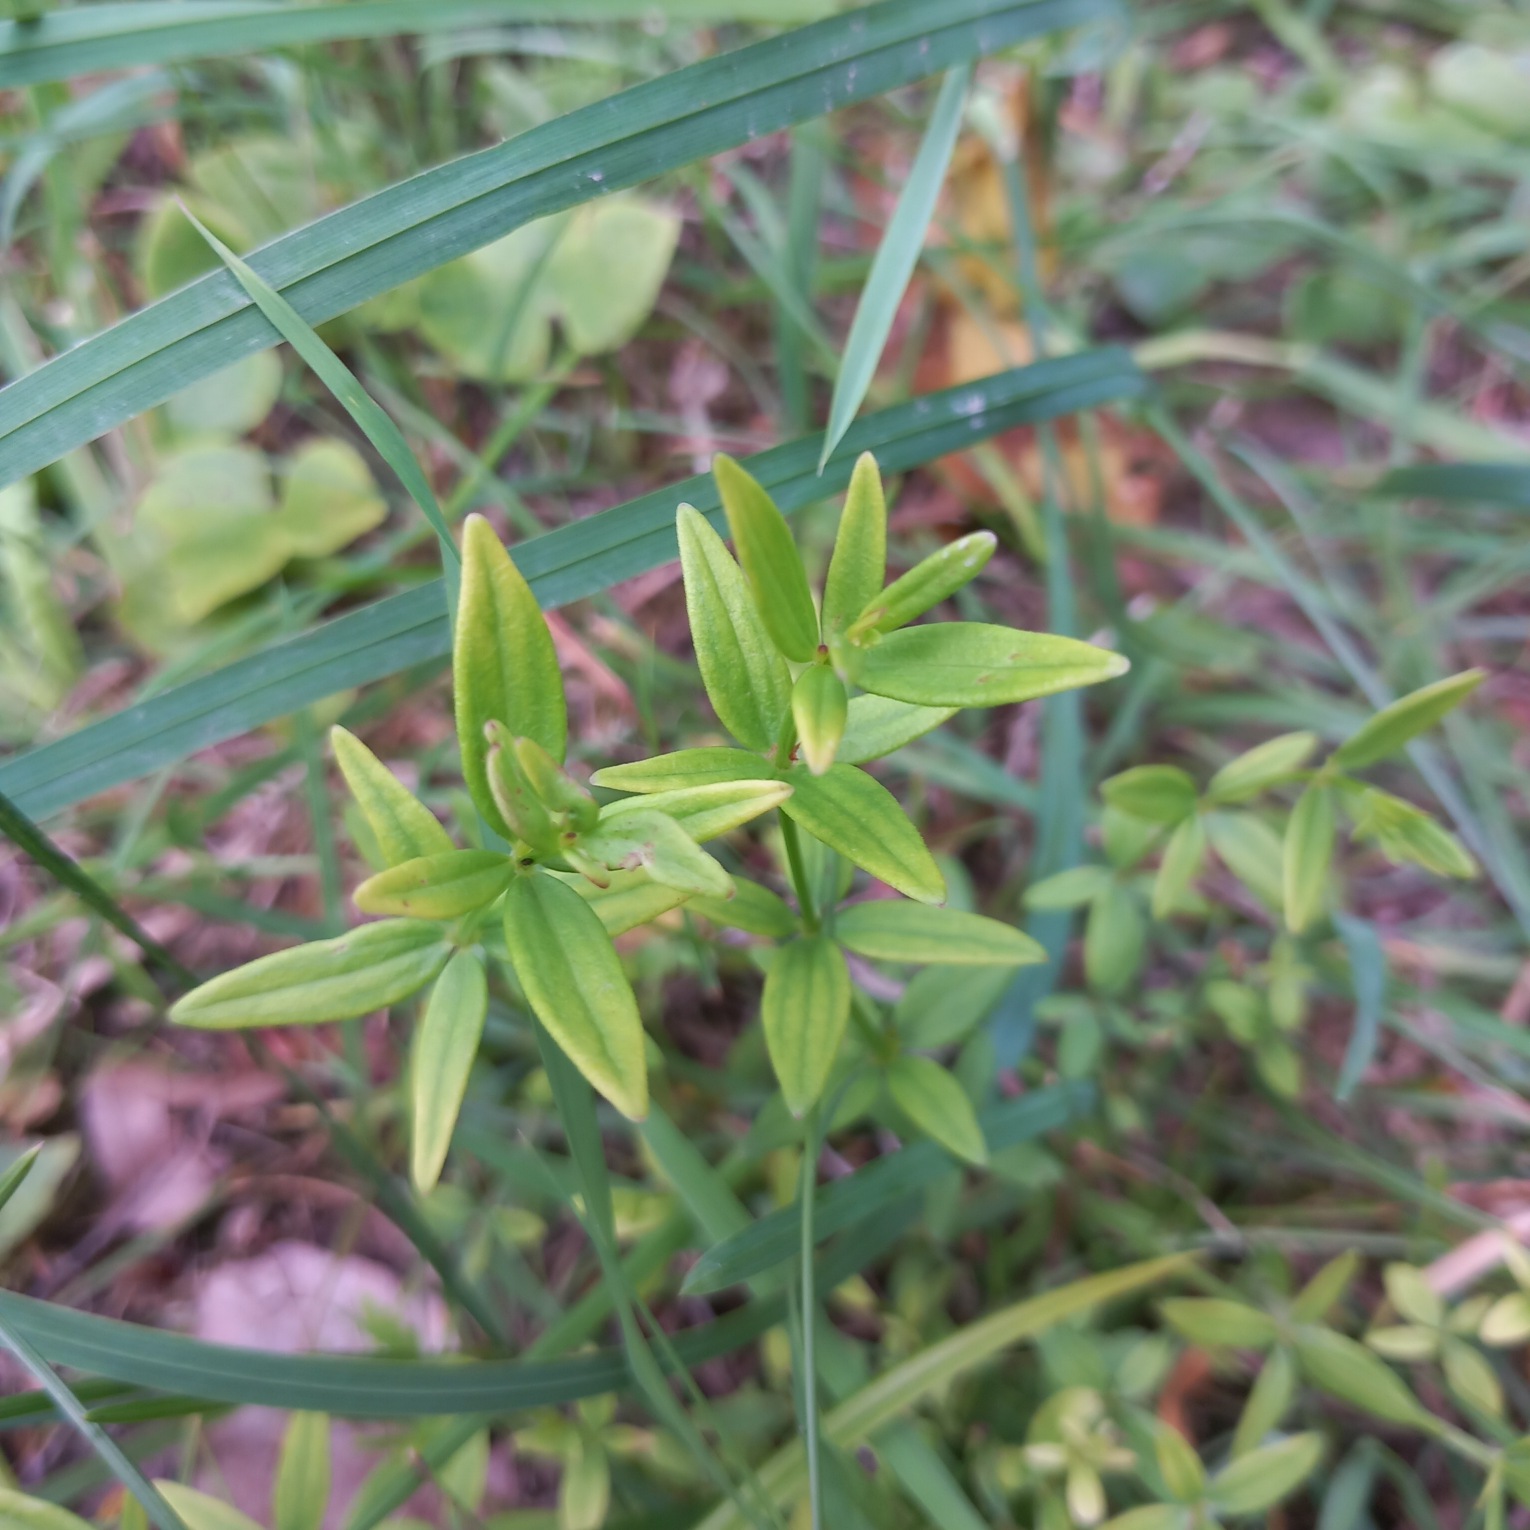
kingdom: Plantae
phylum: Tracheophyta
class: Magnoliopsida
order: Gentianales
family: Rubiaceae
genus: Galium
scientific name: Galium boreale
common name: Trenervet snerre
